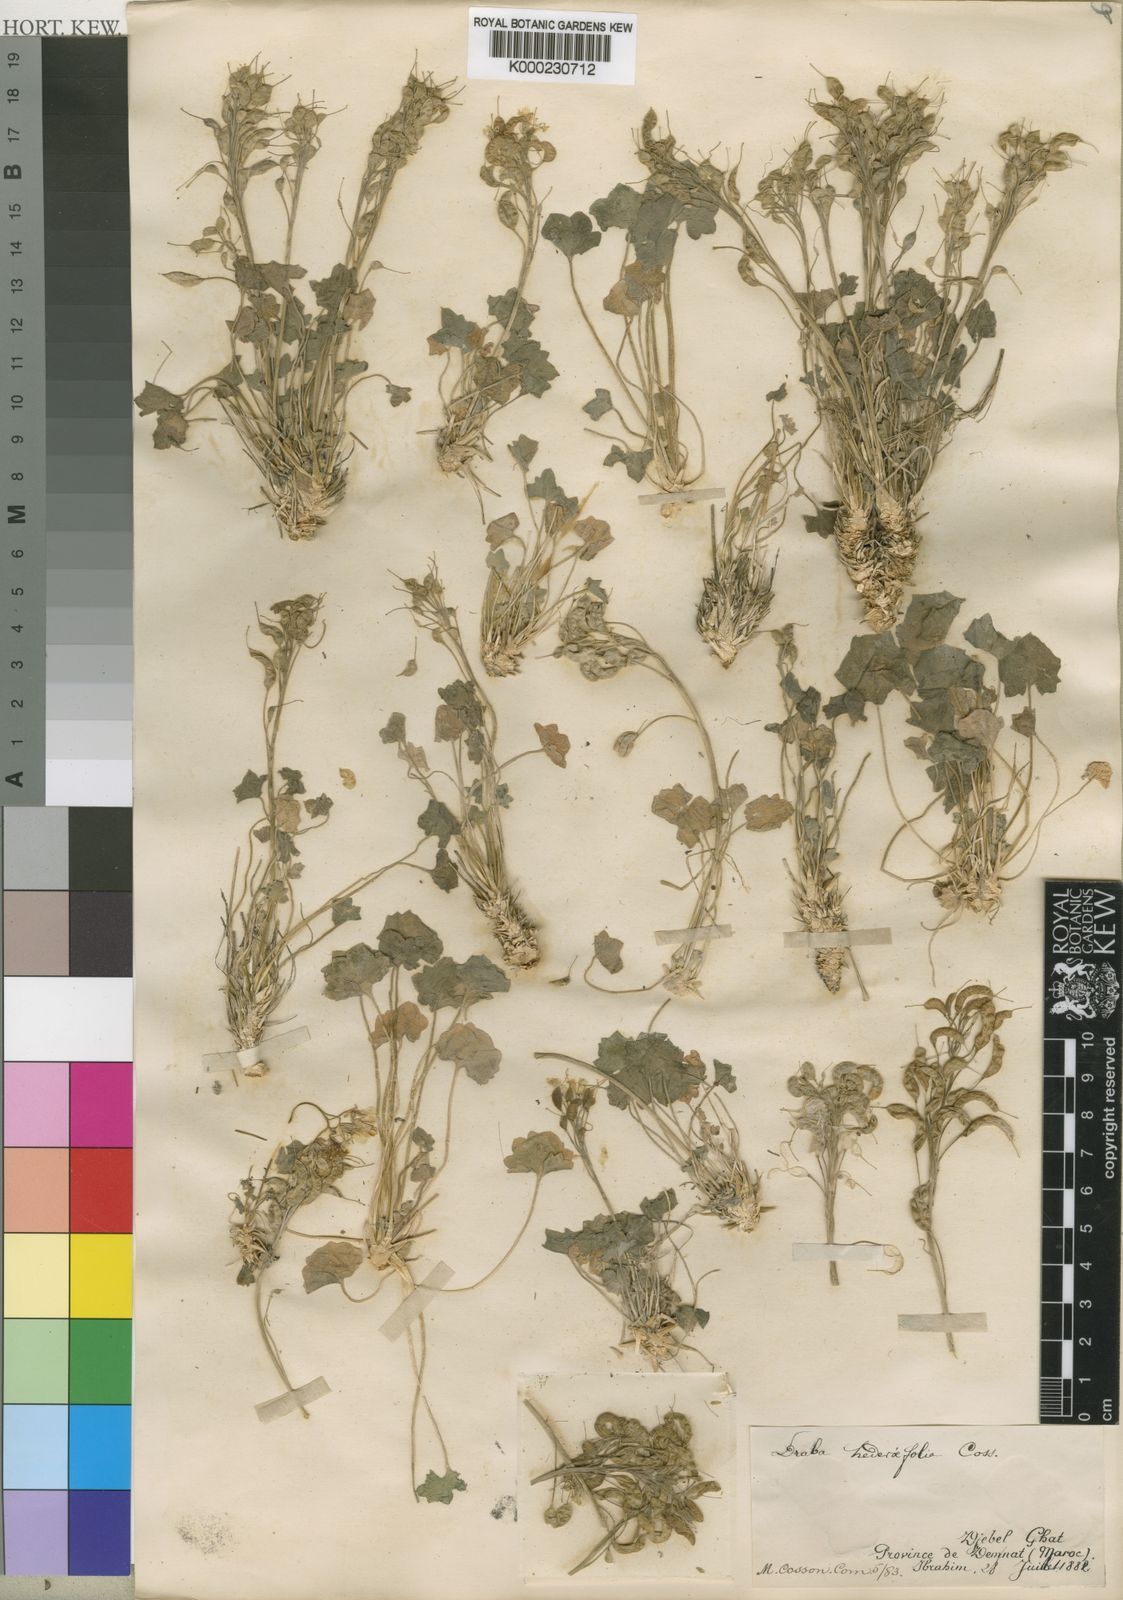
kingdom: Plantae
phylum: Tracheophyta
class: Magnoliopsida
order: Brassicales
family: Brassicaceae
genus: Draba
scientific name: Draba hederifolia
